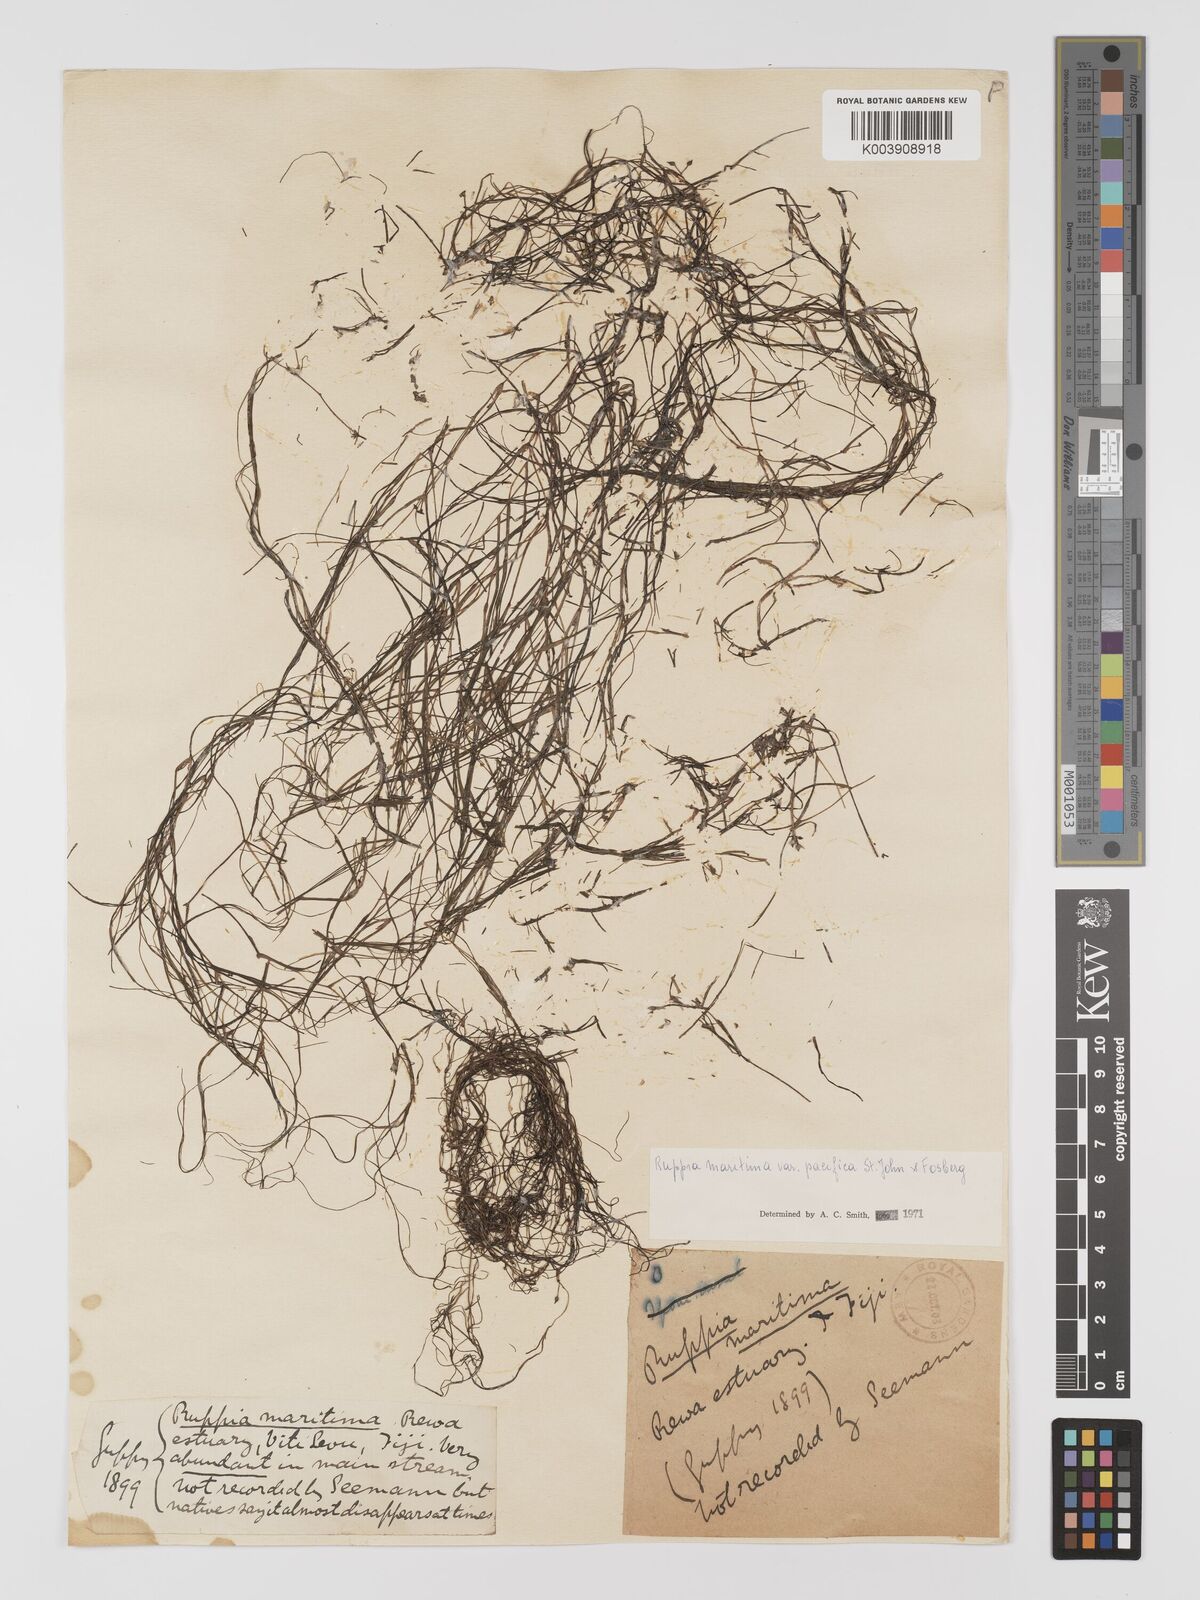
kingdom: Plantae
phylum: Tracheophyta
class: Liliopsida
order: Alismatales
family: Ruppiaceae
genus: Ruppia
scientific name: Ruppia maritima
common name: Beaked tasselweed
